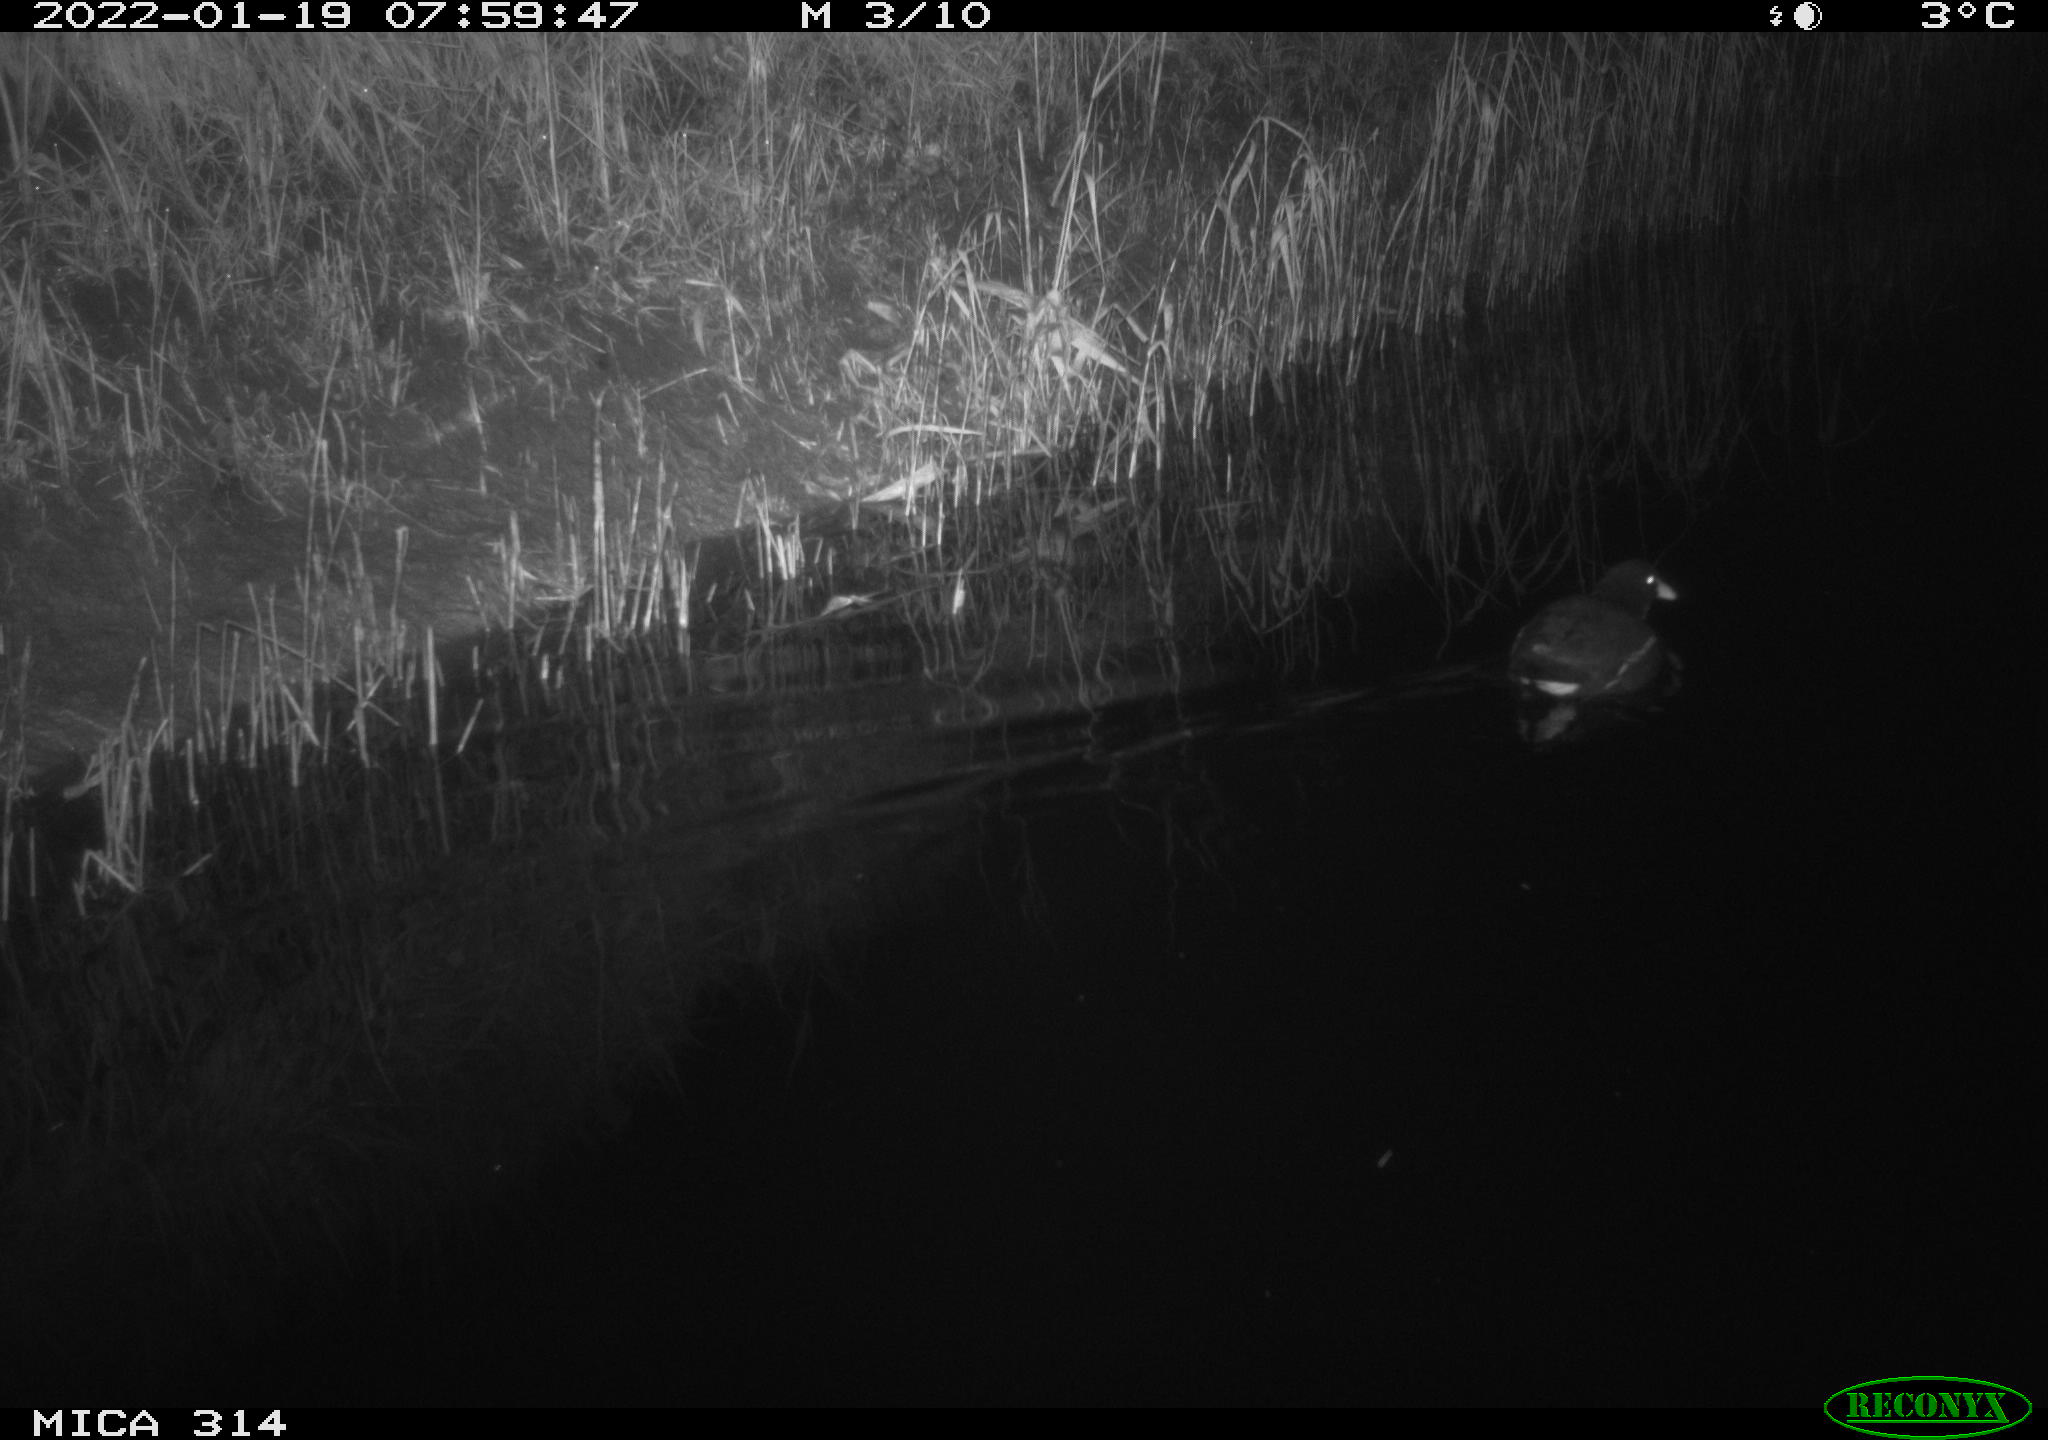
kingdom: Animalia
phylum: Chordata
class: Aves
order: Gruiformes
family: Rallidae
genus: Gallinula
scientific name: Gallinula chloropus
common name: Common moorhen
